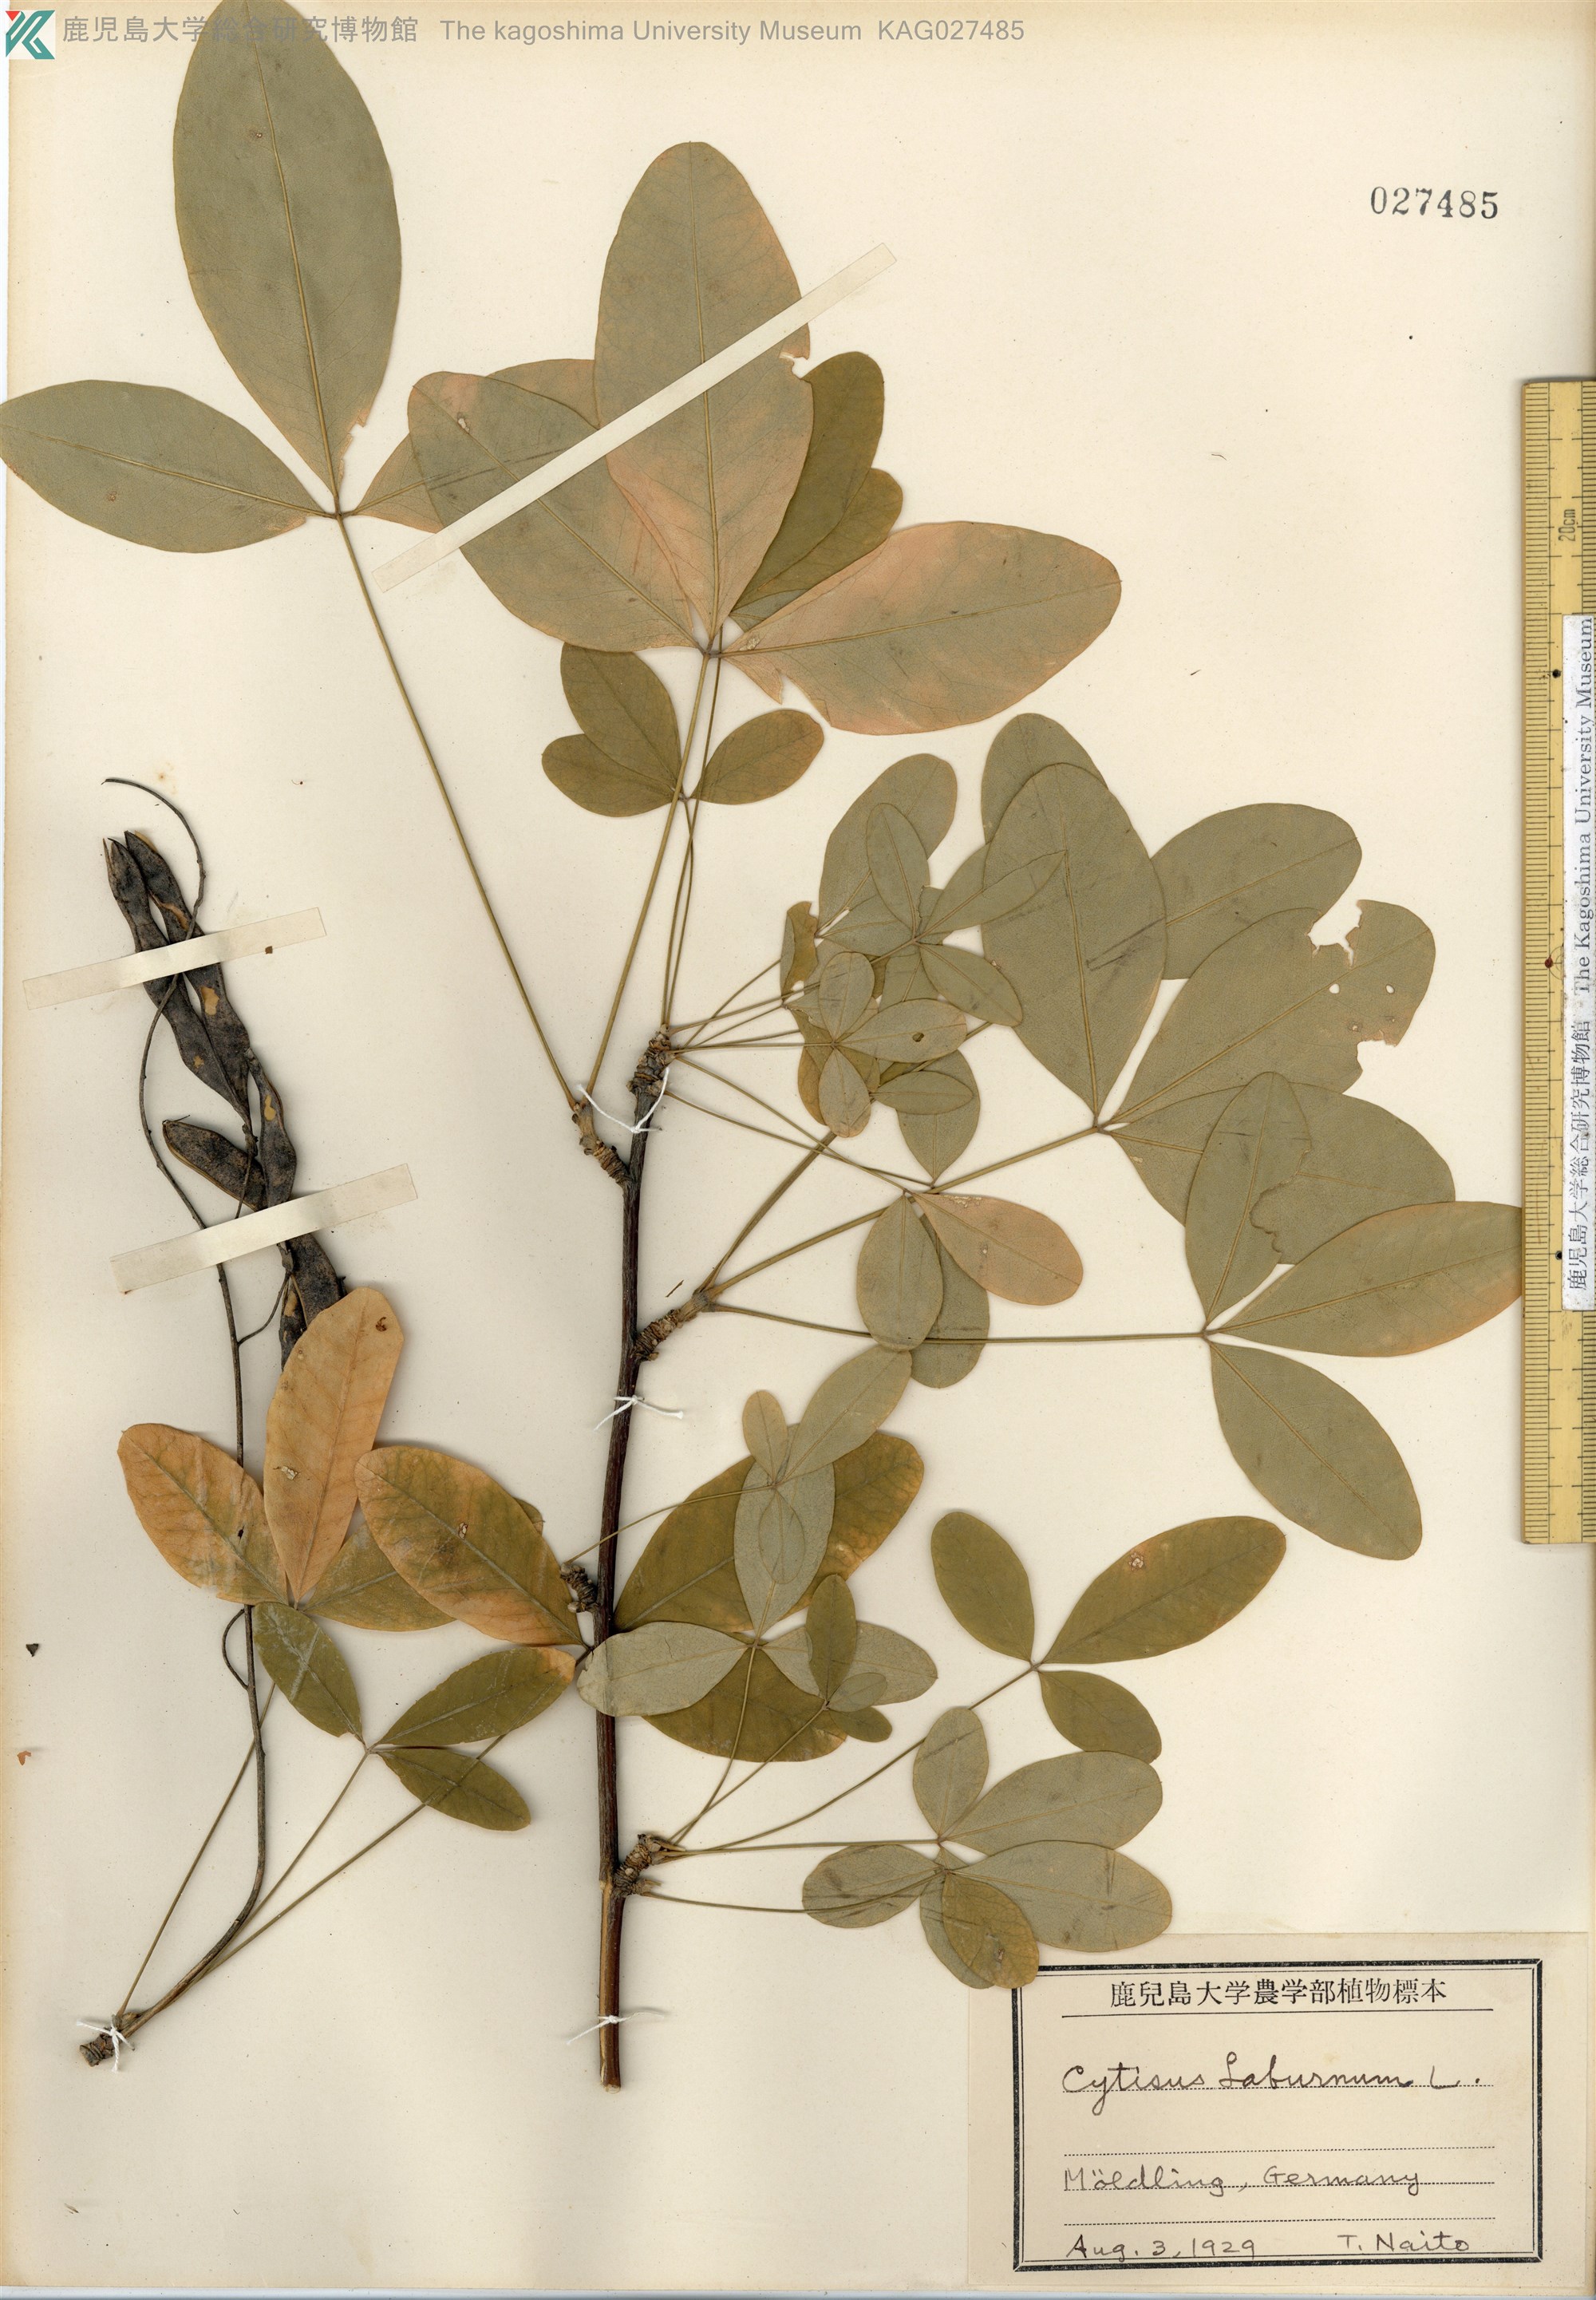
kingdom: Plantae
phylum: Tracheophyta
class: Magnoliopsida
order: Fabales
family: Fabaceae
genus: Laburnum
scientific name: Laburnum anagyroides
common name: Laburnum
